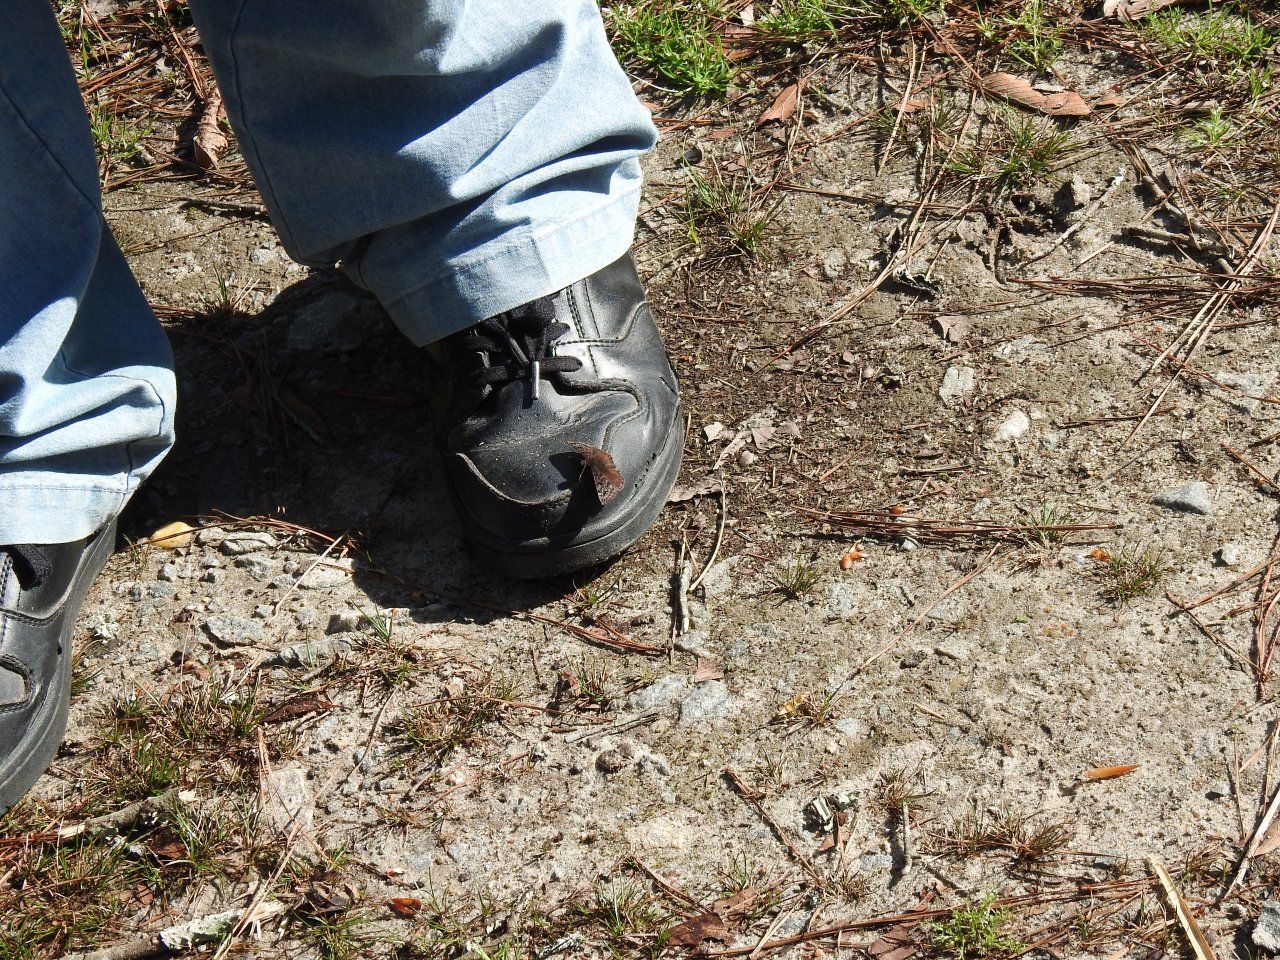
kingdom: Animalia
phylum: Arthropoda
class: Insecta
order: Lepidoptera
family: Hesperiidae
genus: Erynnis
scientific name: Erynnis
